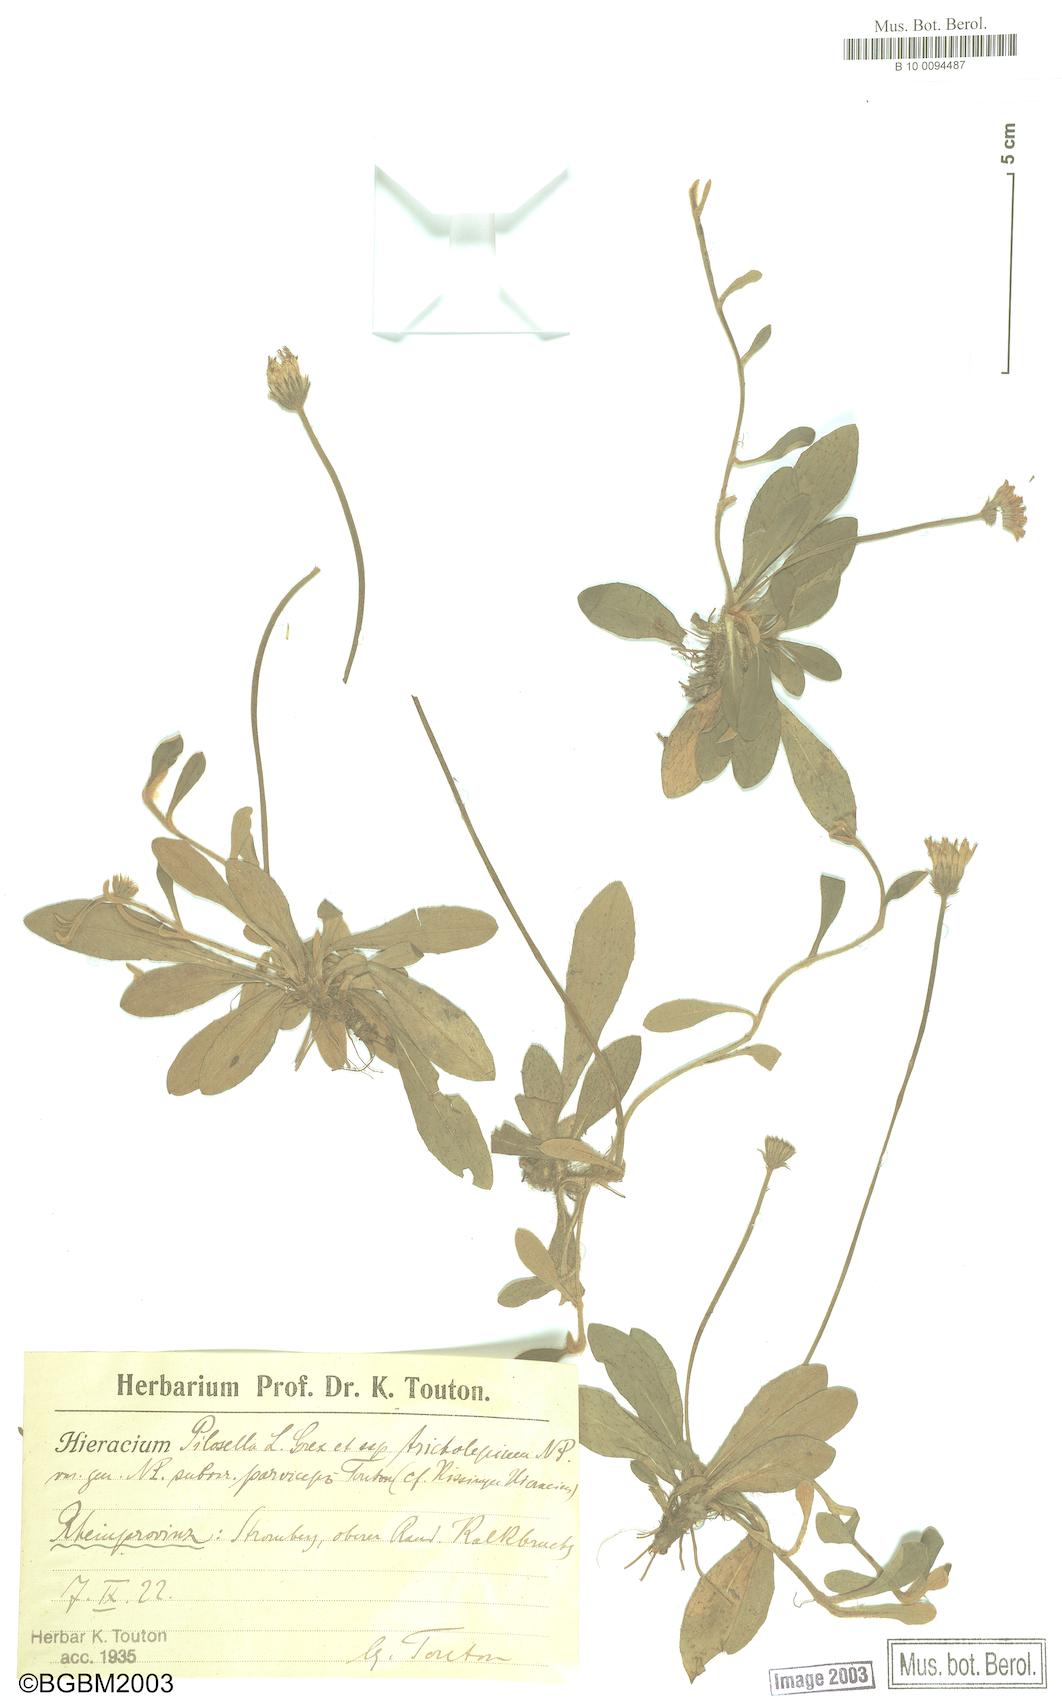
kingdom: Plantae
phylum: Tracheophyta
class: Magnoliopsida
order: Asterales
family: Asteraceae
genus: Pilosella
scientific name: Pilosella officinarum
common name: Mouse-ear hawkweed
